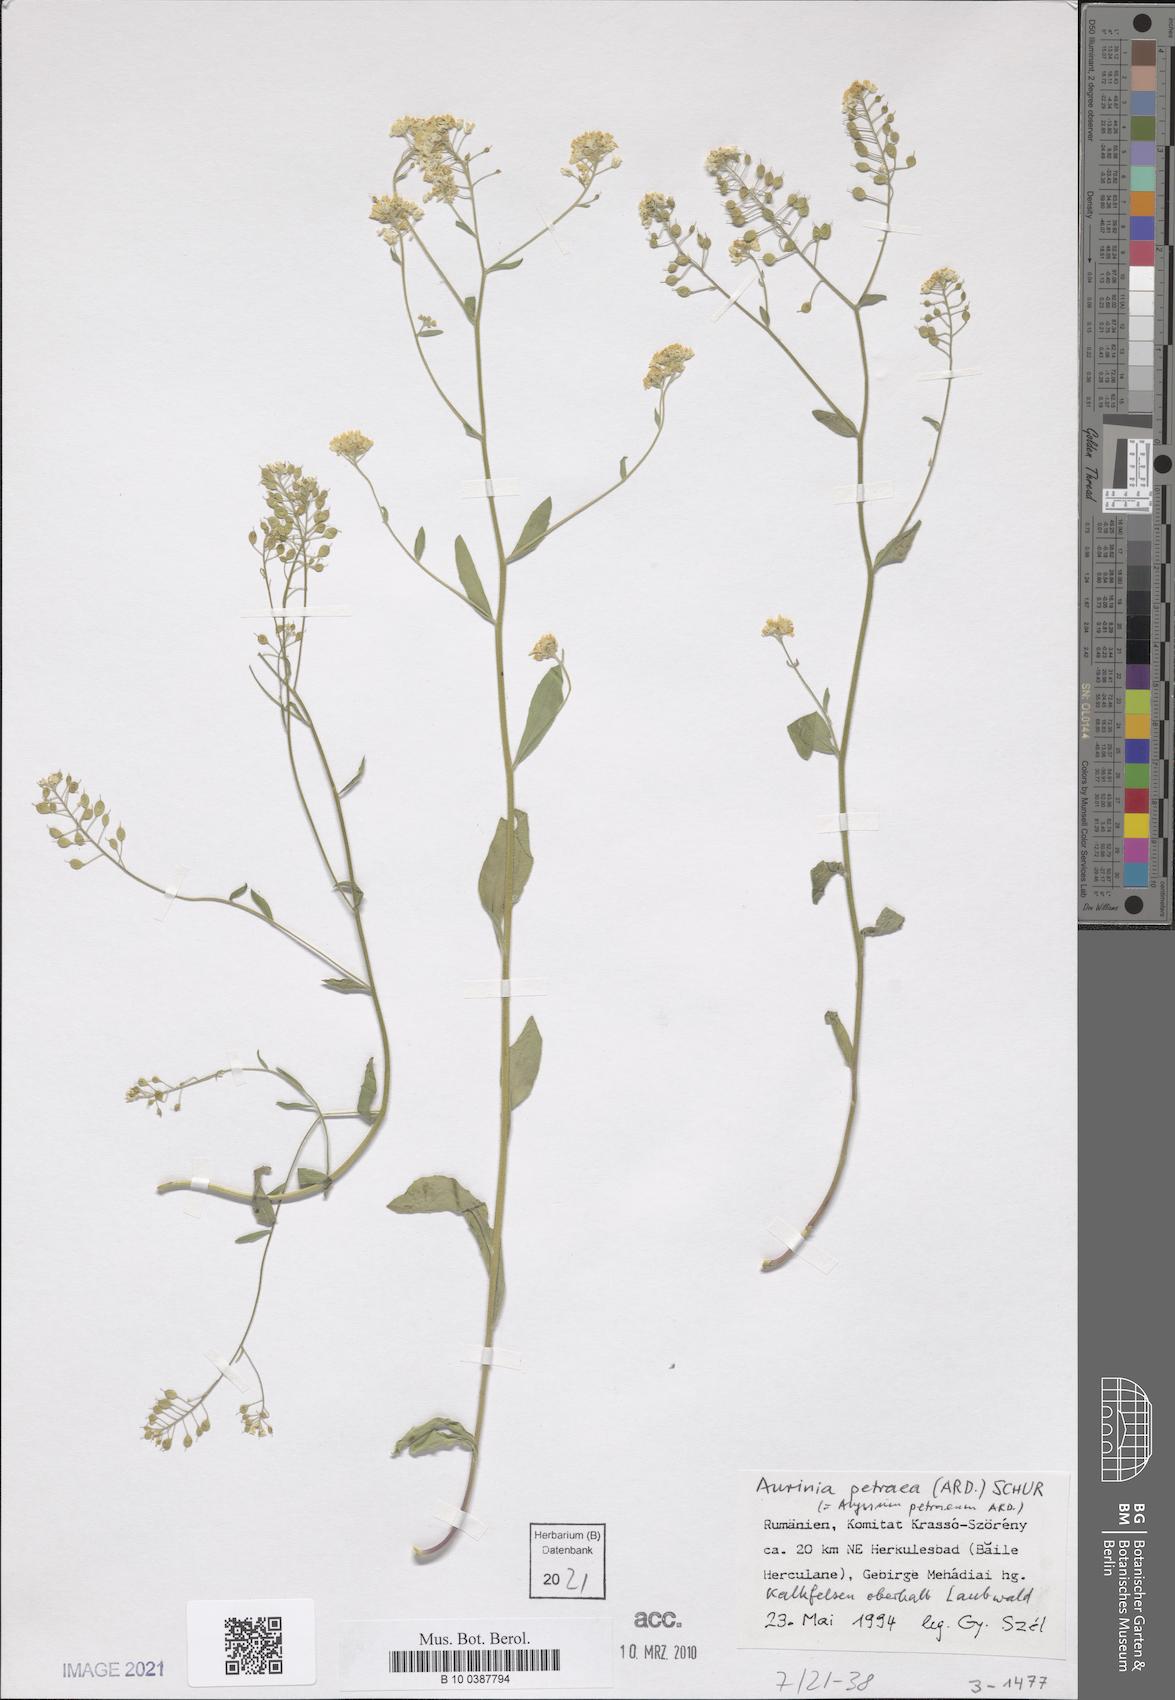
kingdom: Plantae
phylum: Tracheophyta
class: Magnoliopsida
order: Brassicales
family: Brassicaceae
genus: Aurinia
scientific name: Aurinia petraea
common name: Goldentuft
